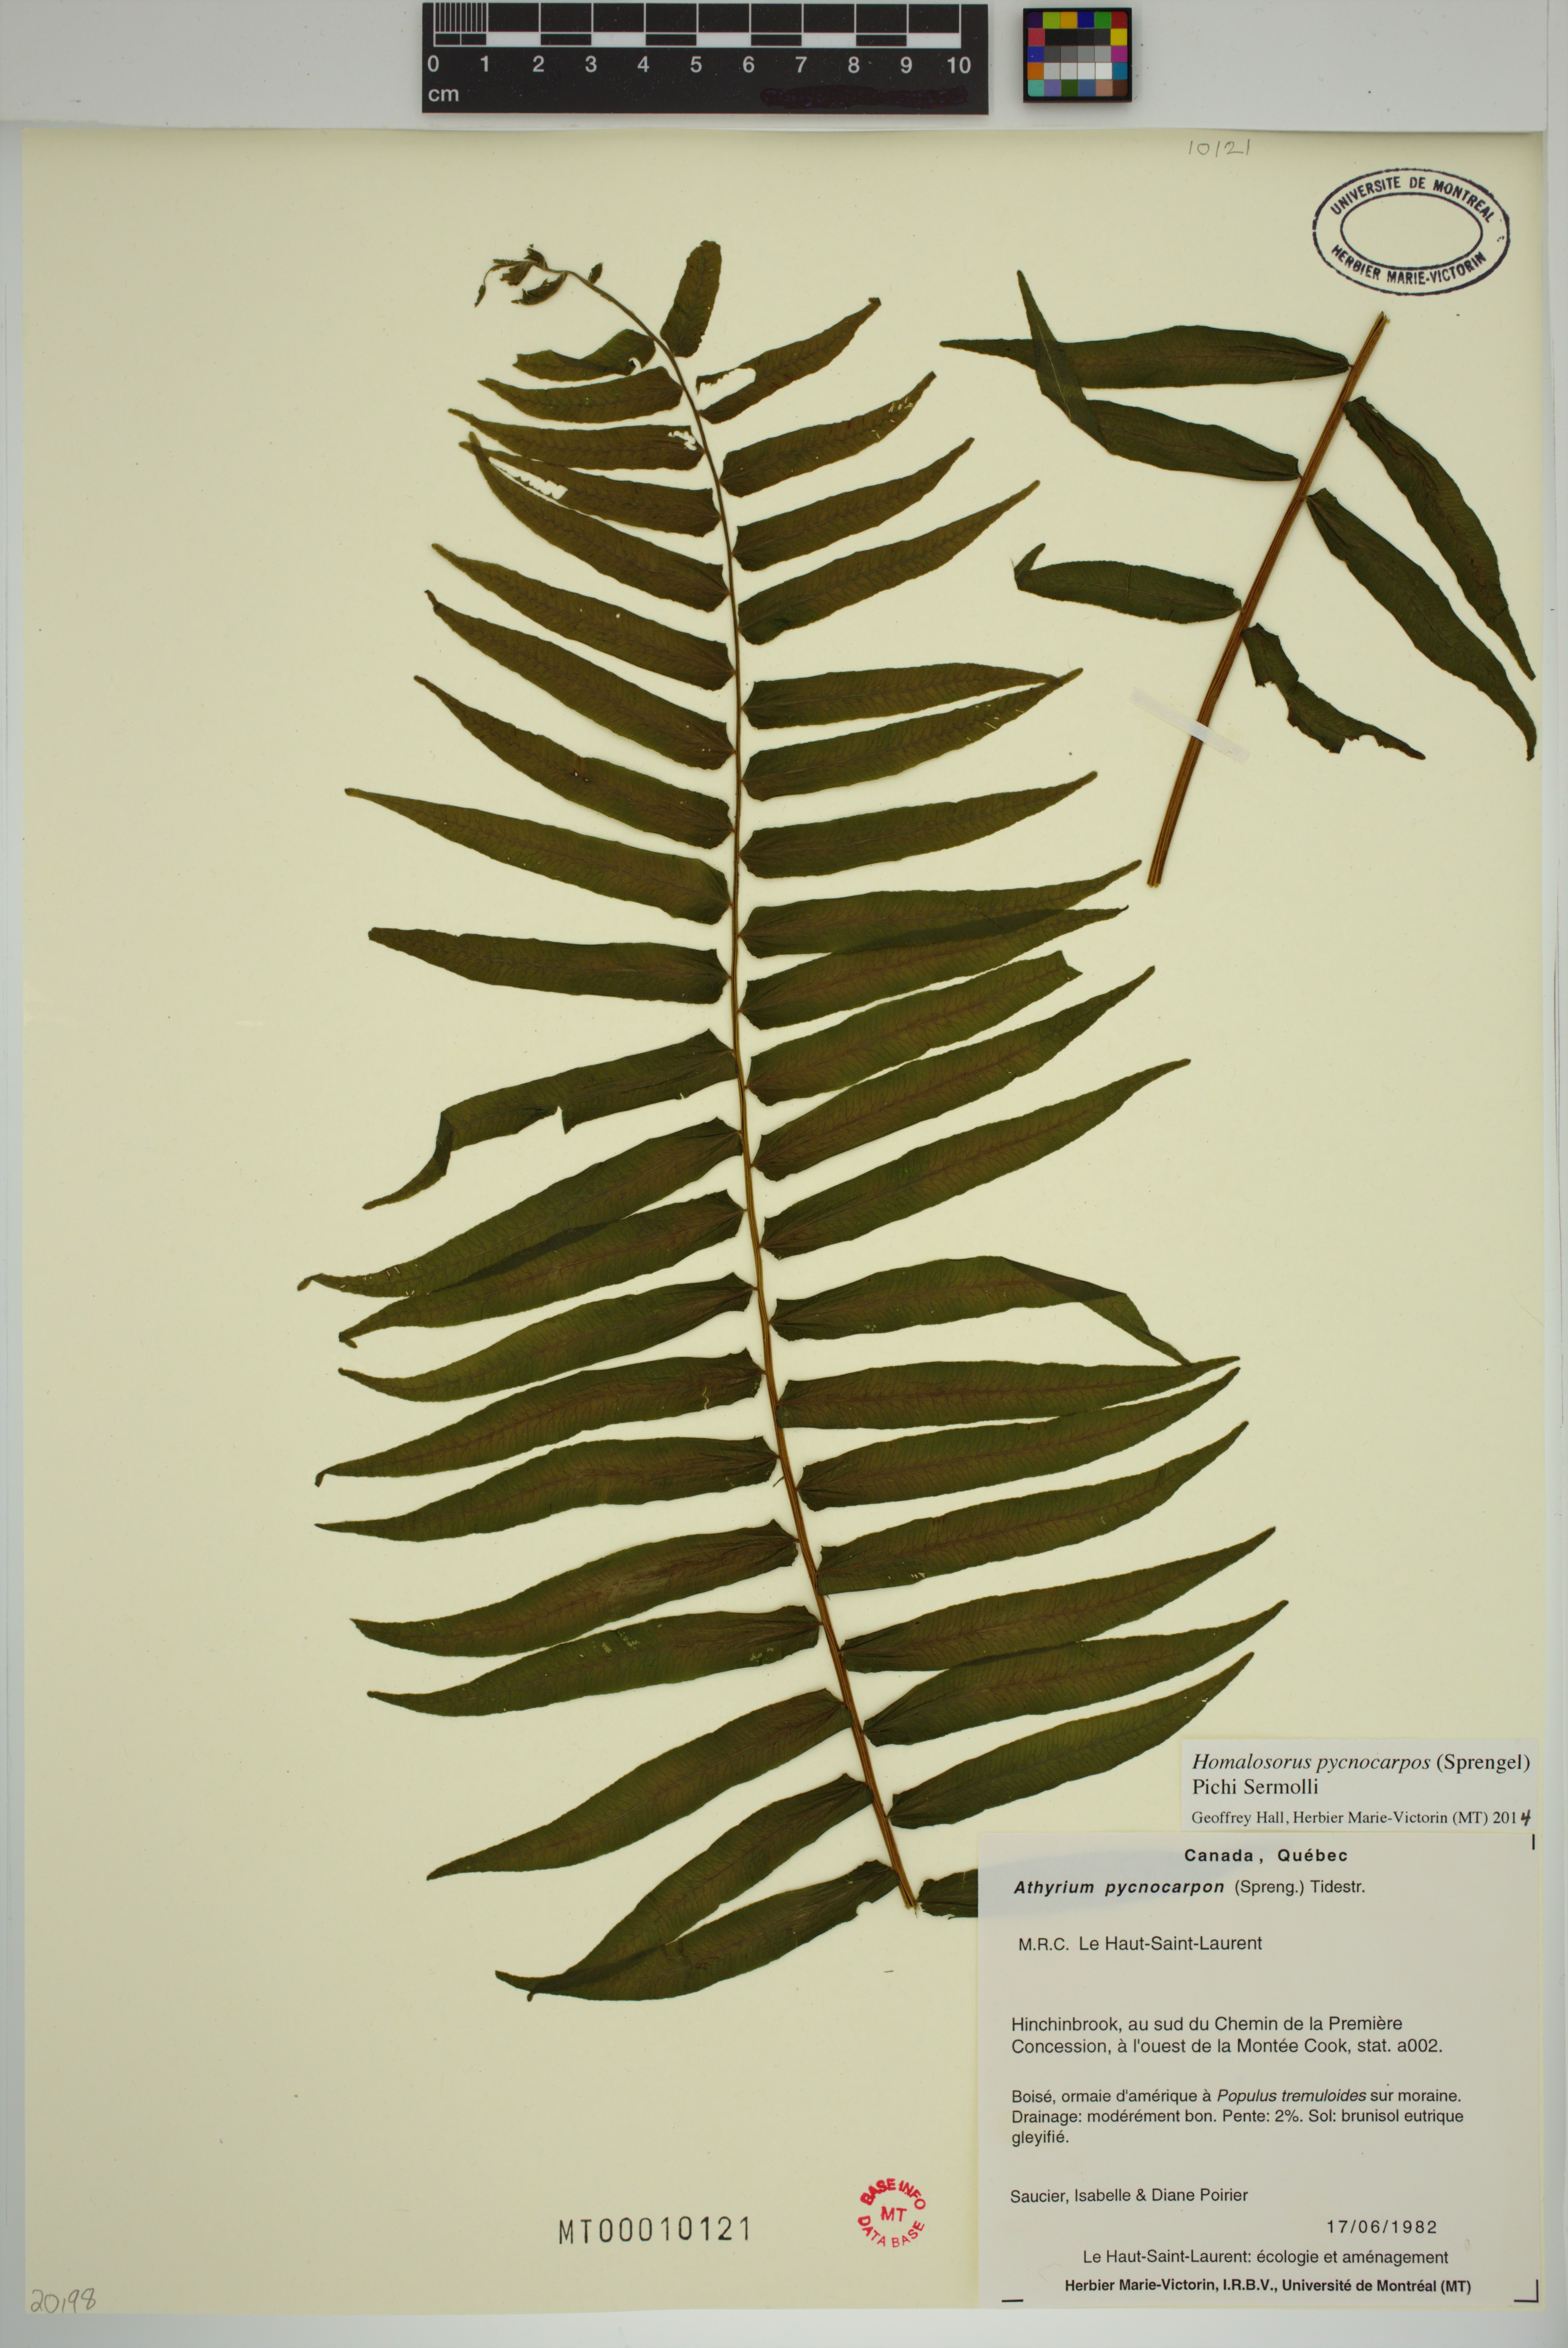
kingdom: Plantae
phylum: Tracheophyta
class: Polypodiopsida
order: Polypodiales
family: Diplaziopsidaceae
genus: Homalosorus
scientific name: Homalosorus pycnocarpos
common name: Glade fern
